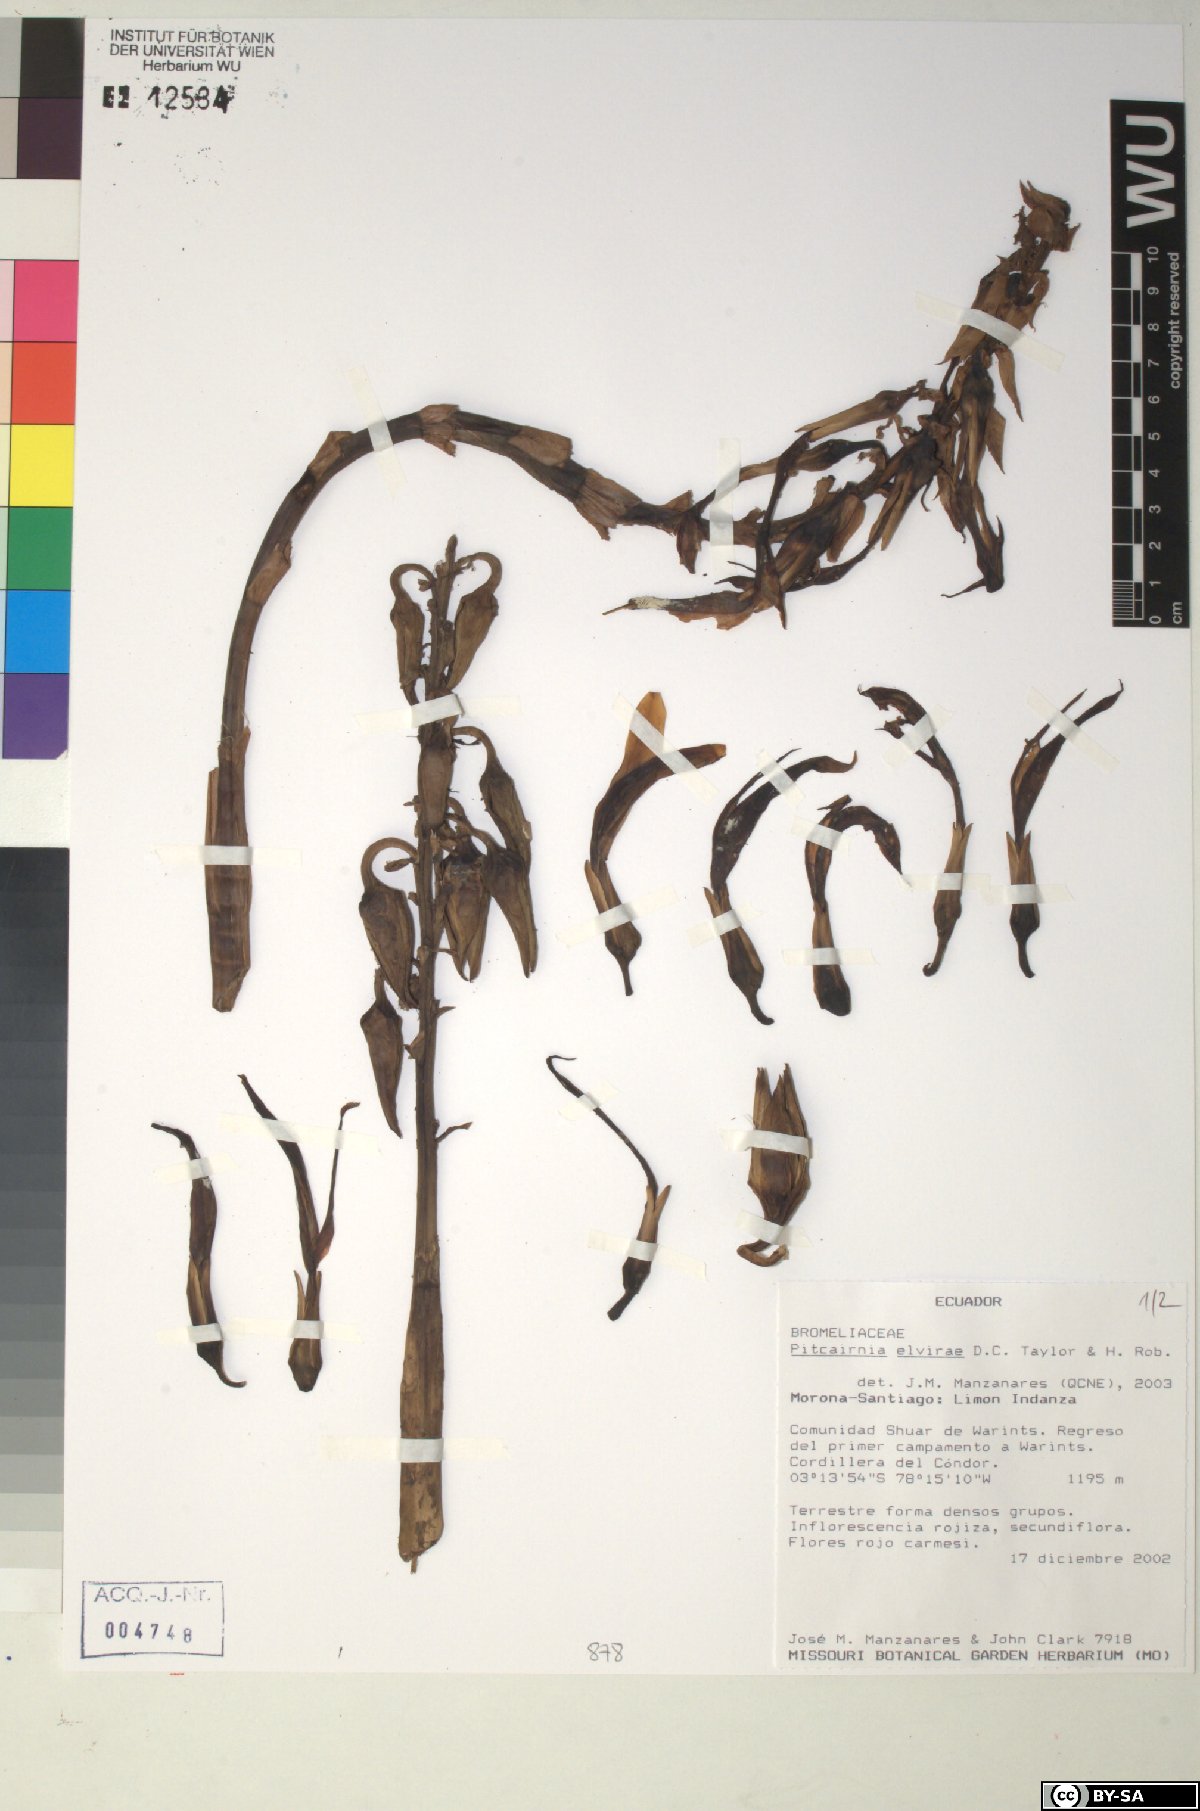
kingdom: Plantae
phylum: Tracheophyta
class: Liliopsida
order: Poales
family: Bromeliaceae
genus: Pitcairnia
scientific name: Pitcairnia elvirae
